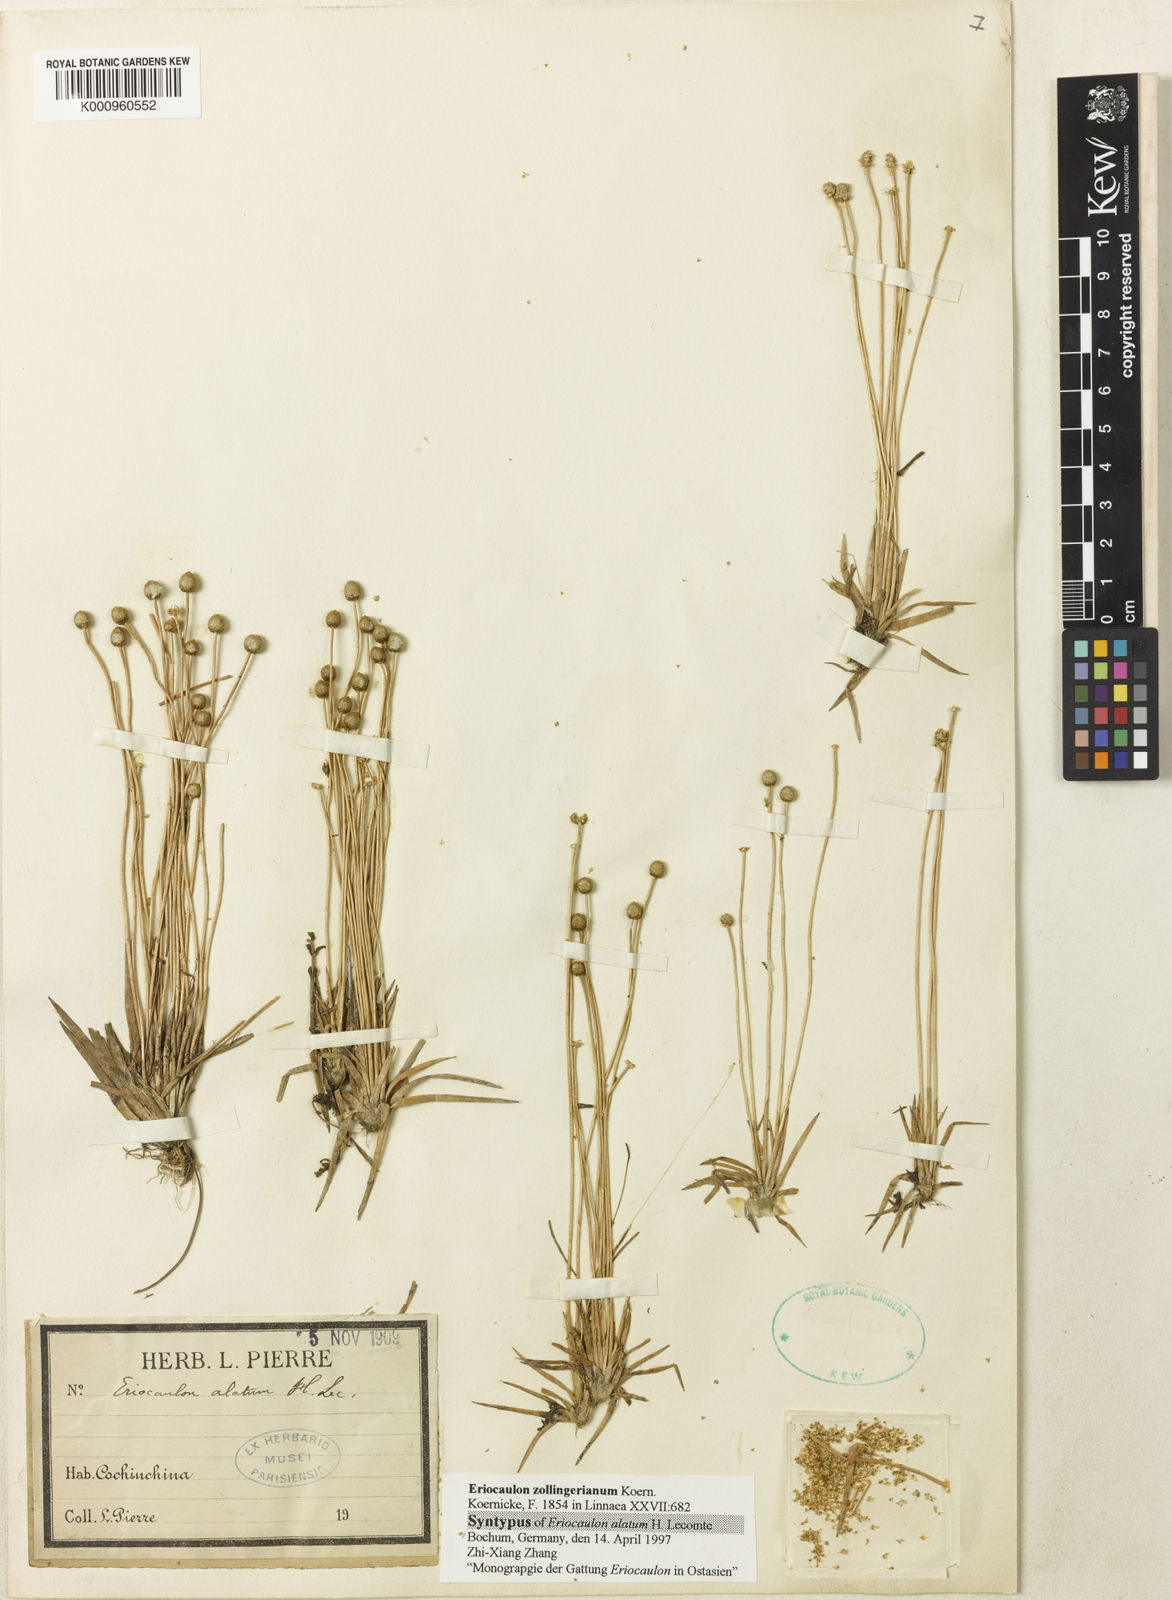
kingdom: Plantae
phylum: Tracheophyta
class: Liliopsida
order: Poales
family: Eriocaulaceae
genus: Eriocaulon
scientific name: Eriocaulon
